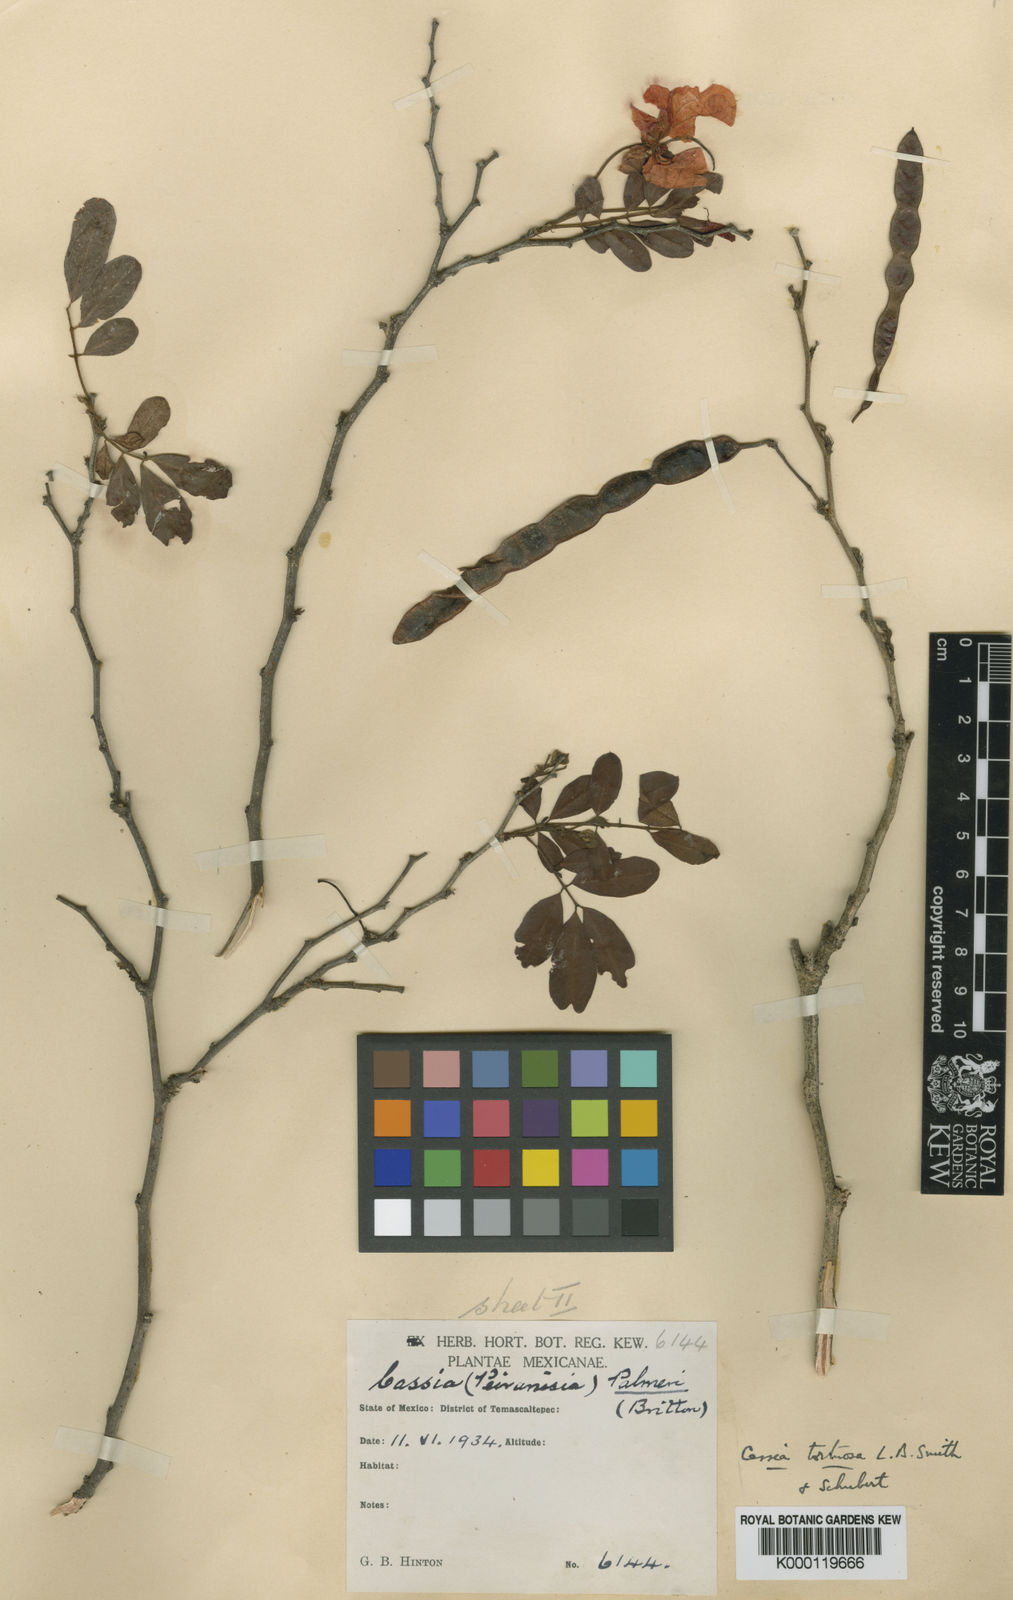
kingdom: Plantae
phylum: Tracheophyta
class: Magnoliopsida
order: Fabales
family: Fabaceae
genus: Senna
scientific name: Senna pallida
